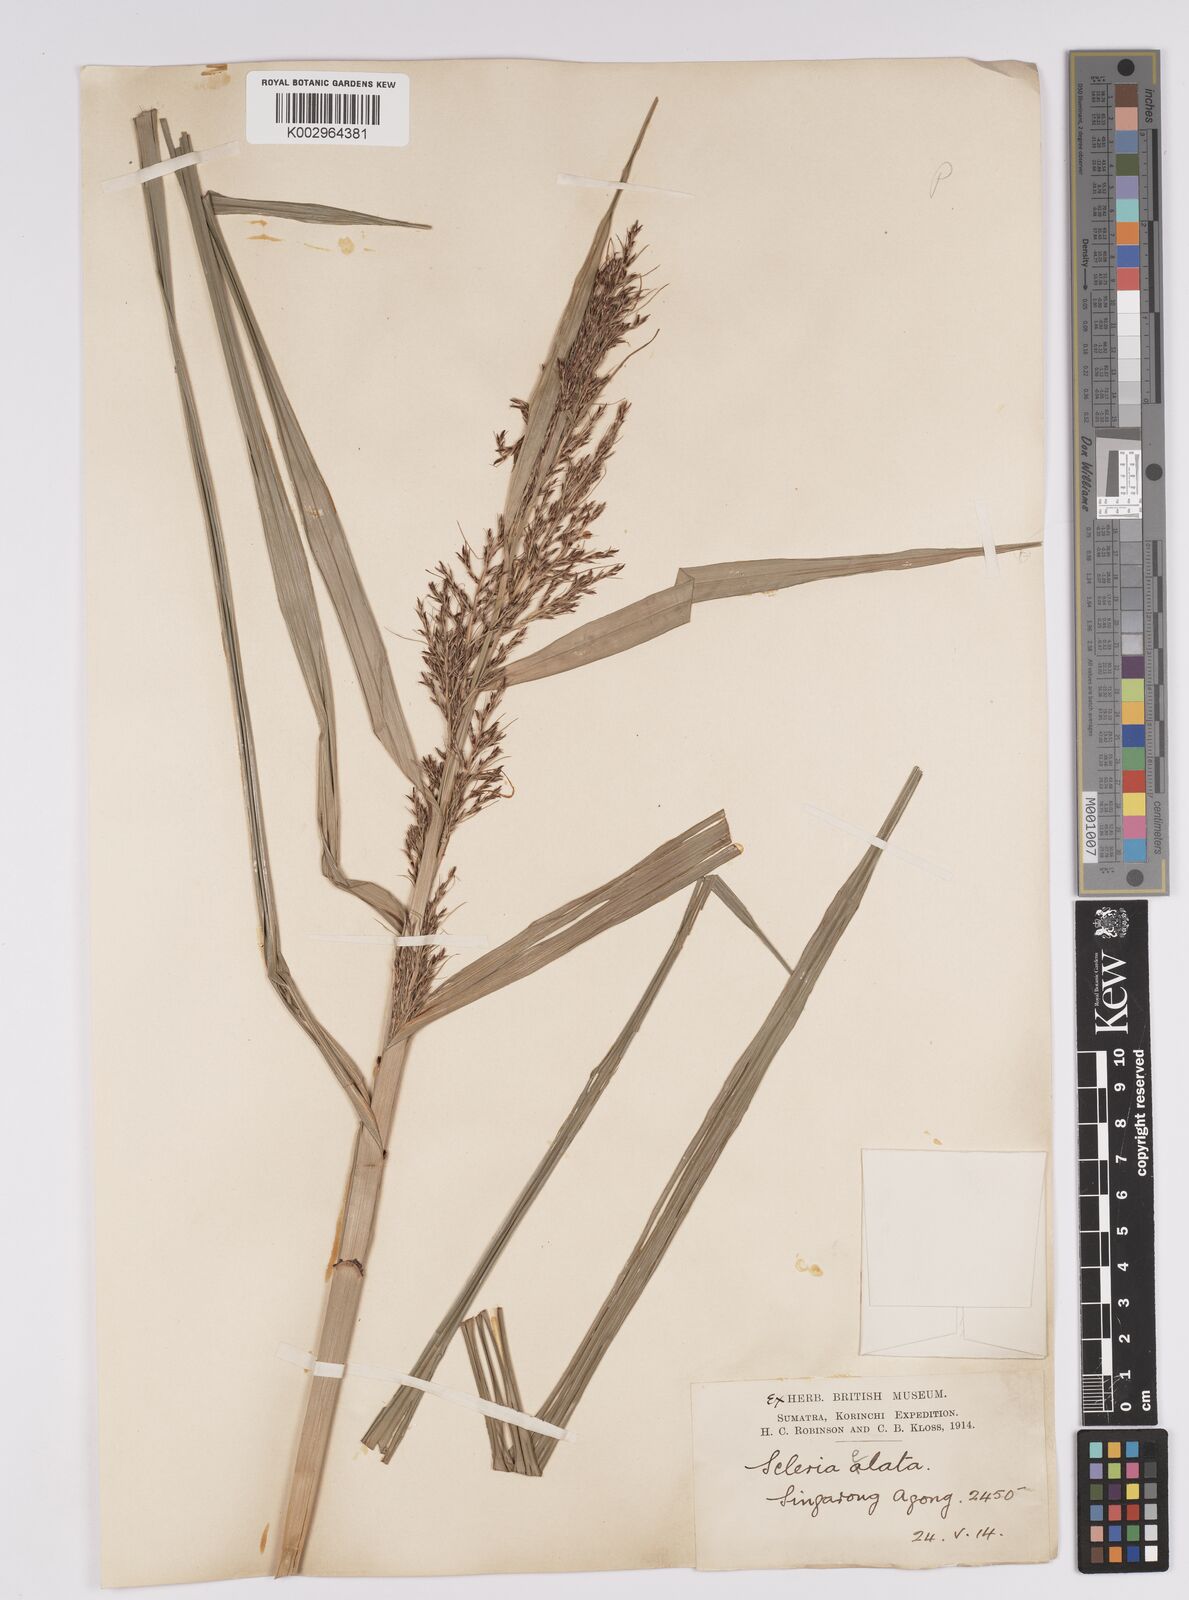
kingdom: Plantae
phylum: Tracheophyta
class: Liliopsida
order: Poales
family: Cyperaceae
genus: Scleria
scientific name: Scleria terrestris
